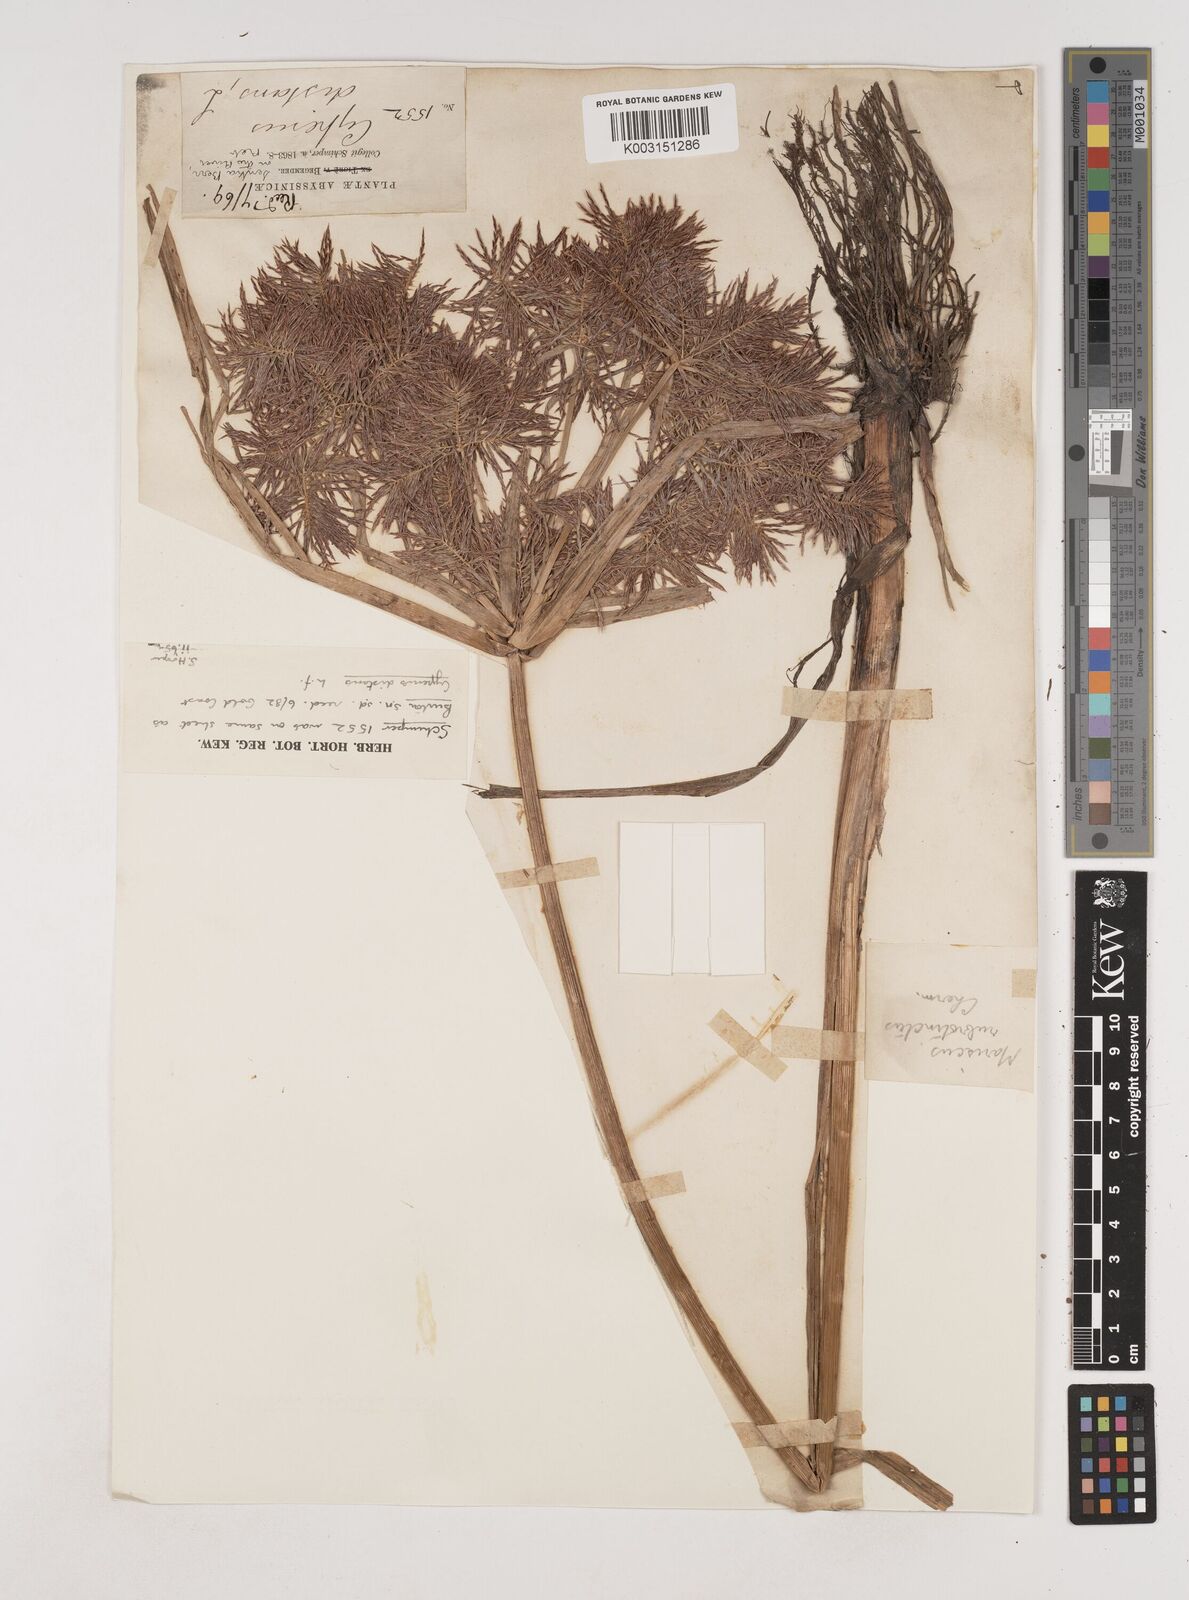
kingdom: Plantae
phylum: Tracheophyta
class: Liliopsida
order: Poales
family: Cyperaceae
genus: Cyperus
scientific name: Cyperus distans
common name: Slender cyperus
